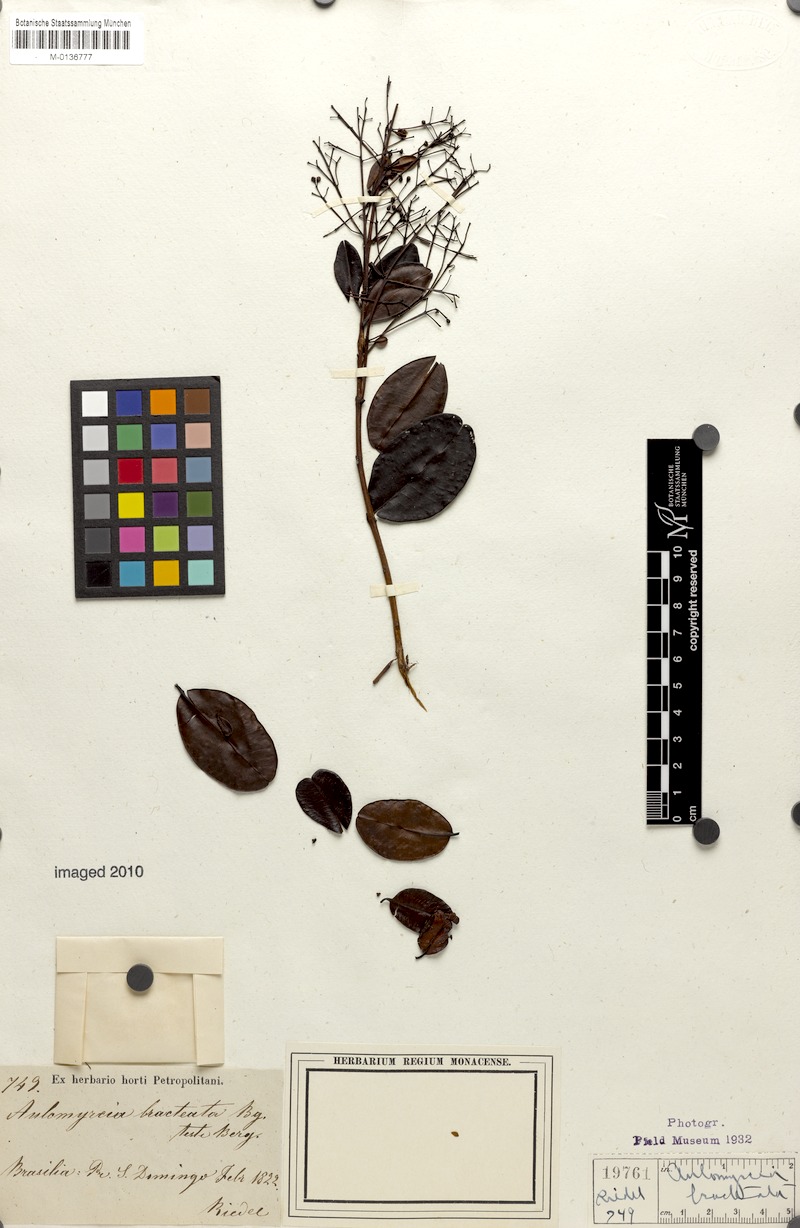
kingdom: Plantae
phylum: Tracheophyta
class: Magnoliopsida
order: Myrtales
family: Myrtaceae
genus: Myrcia
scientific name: Myrcia didrichseniana
